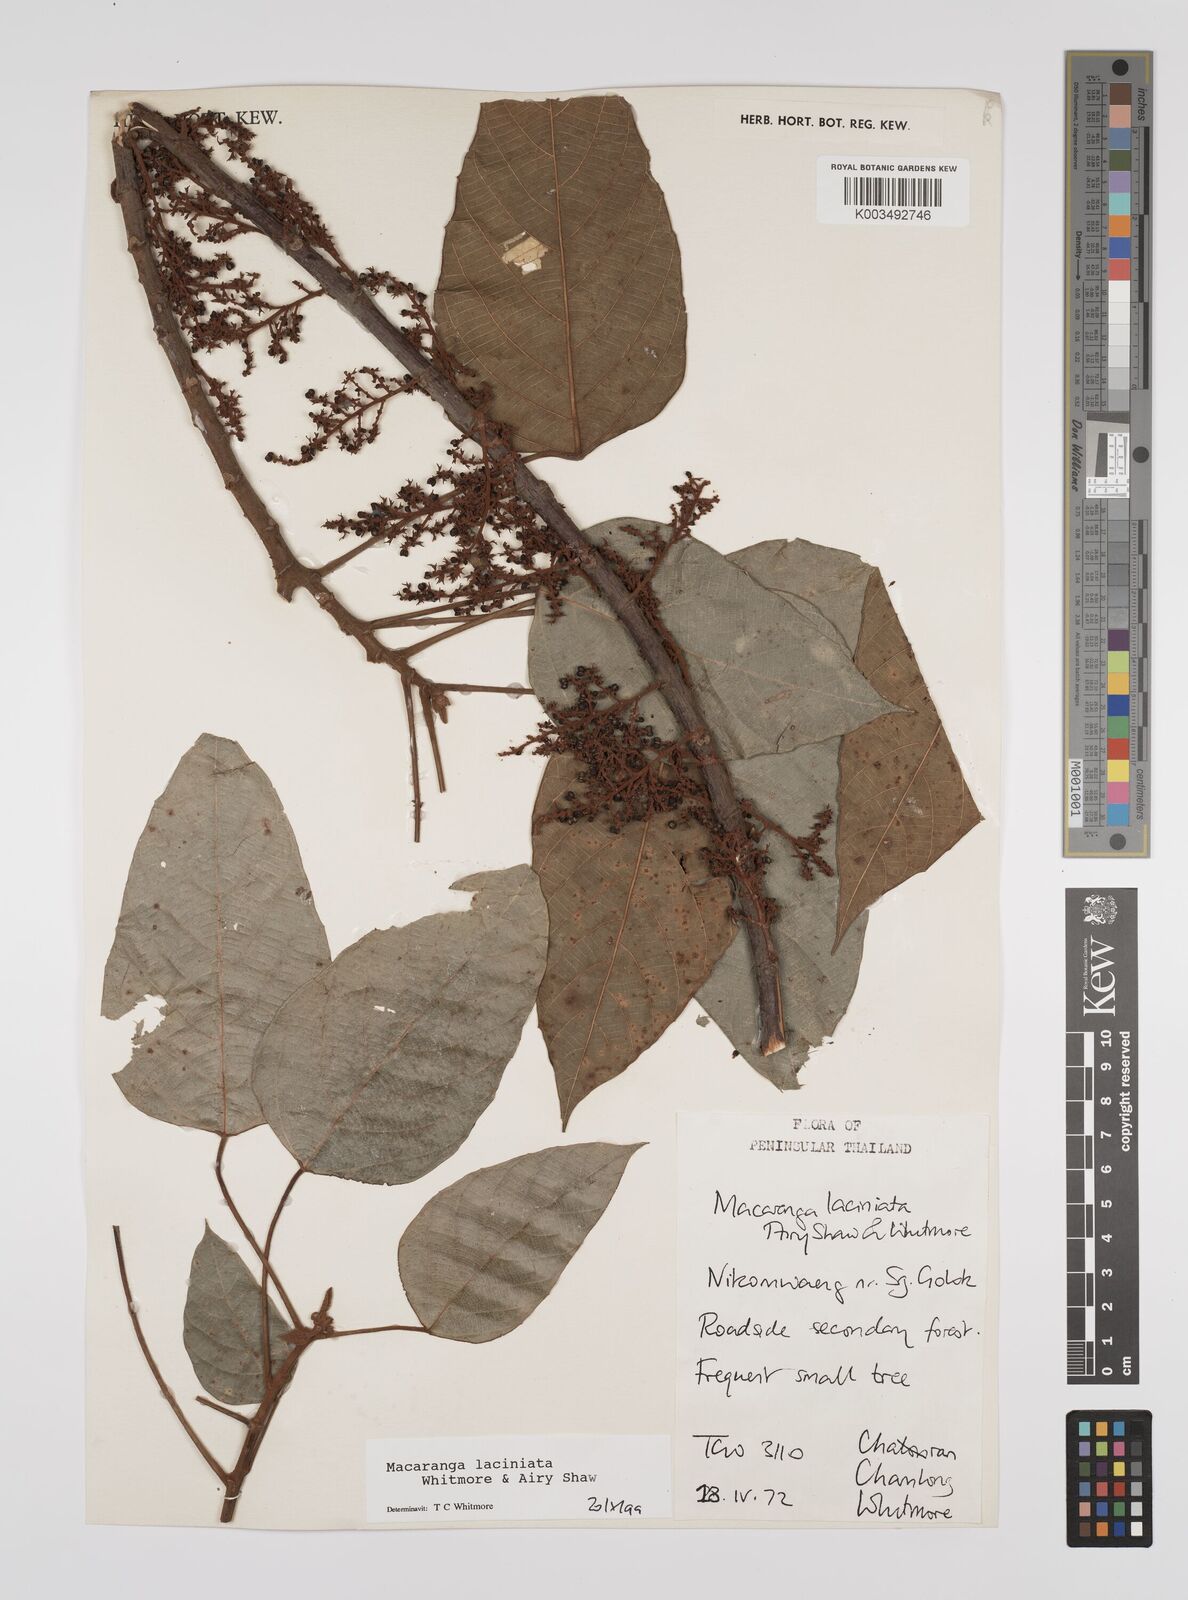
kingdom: Plantae
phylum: Tracheophyta
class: Magnoliopsida
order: Malpighiales
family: Euphorbiaceae
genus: Macaranga
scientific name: Macaranga laciniata
